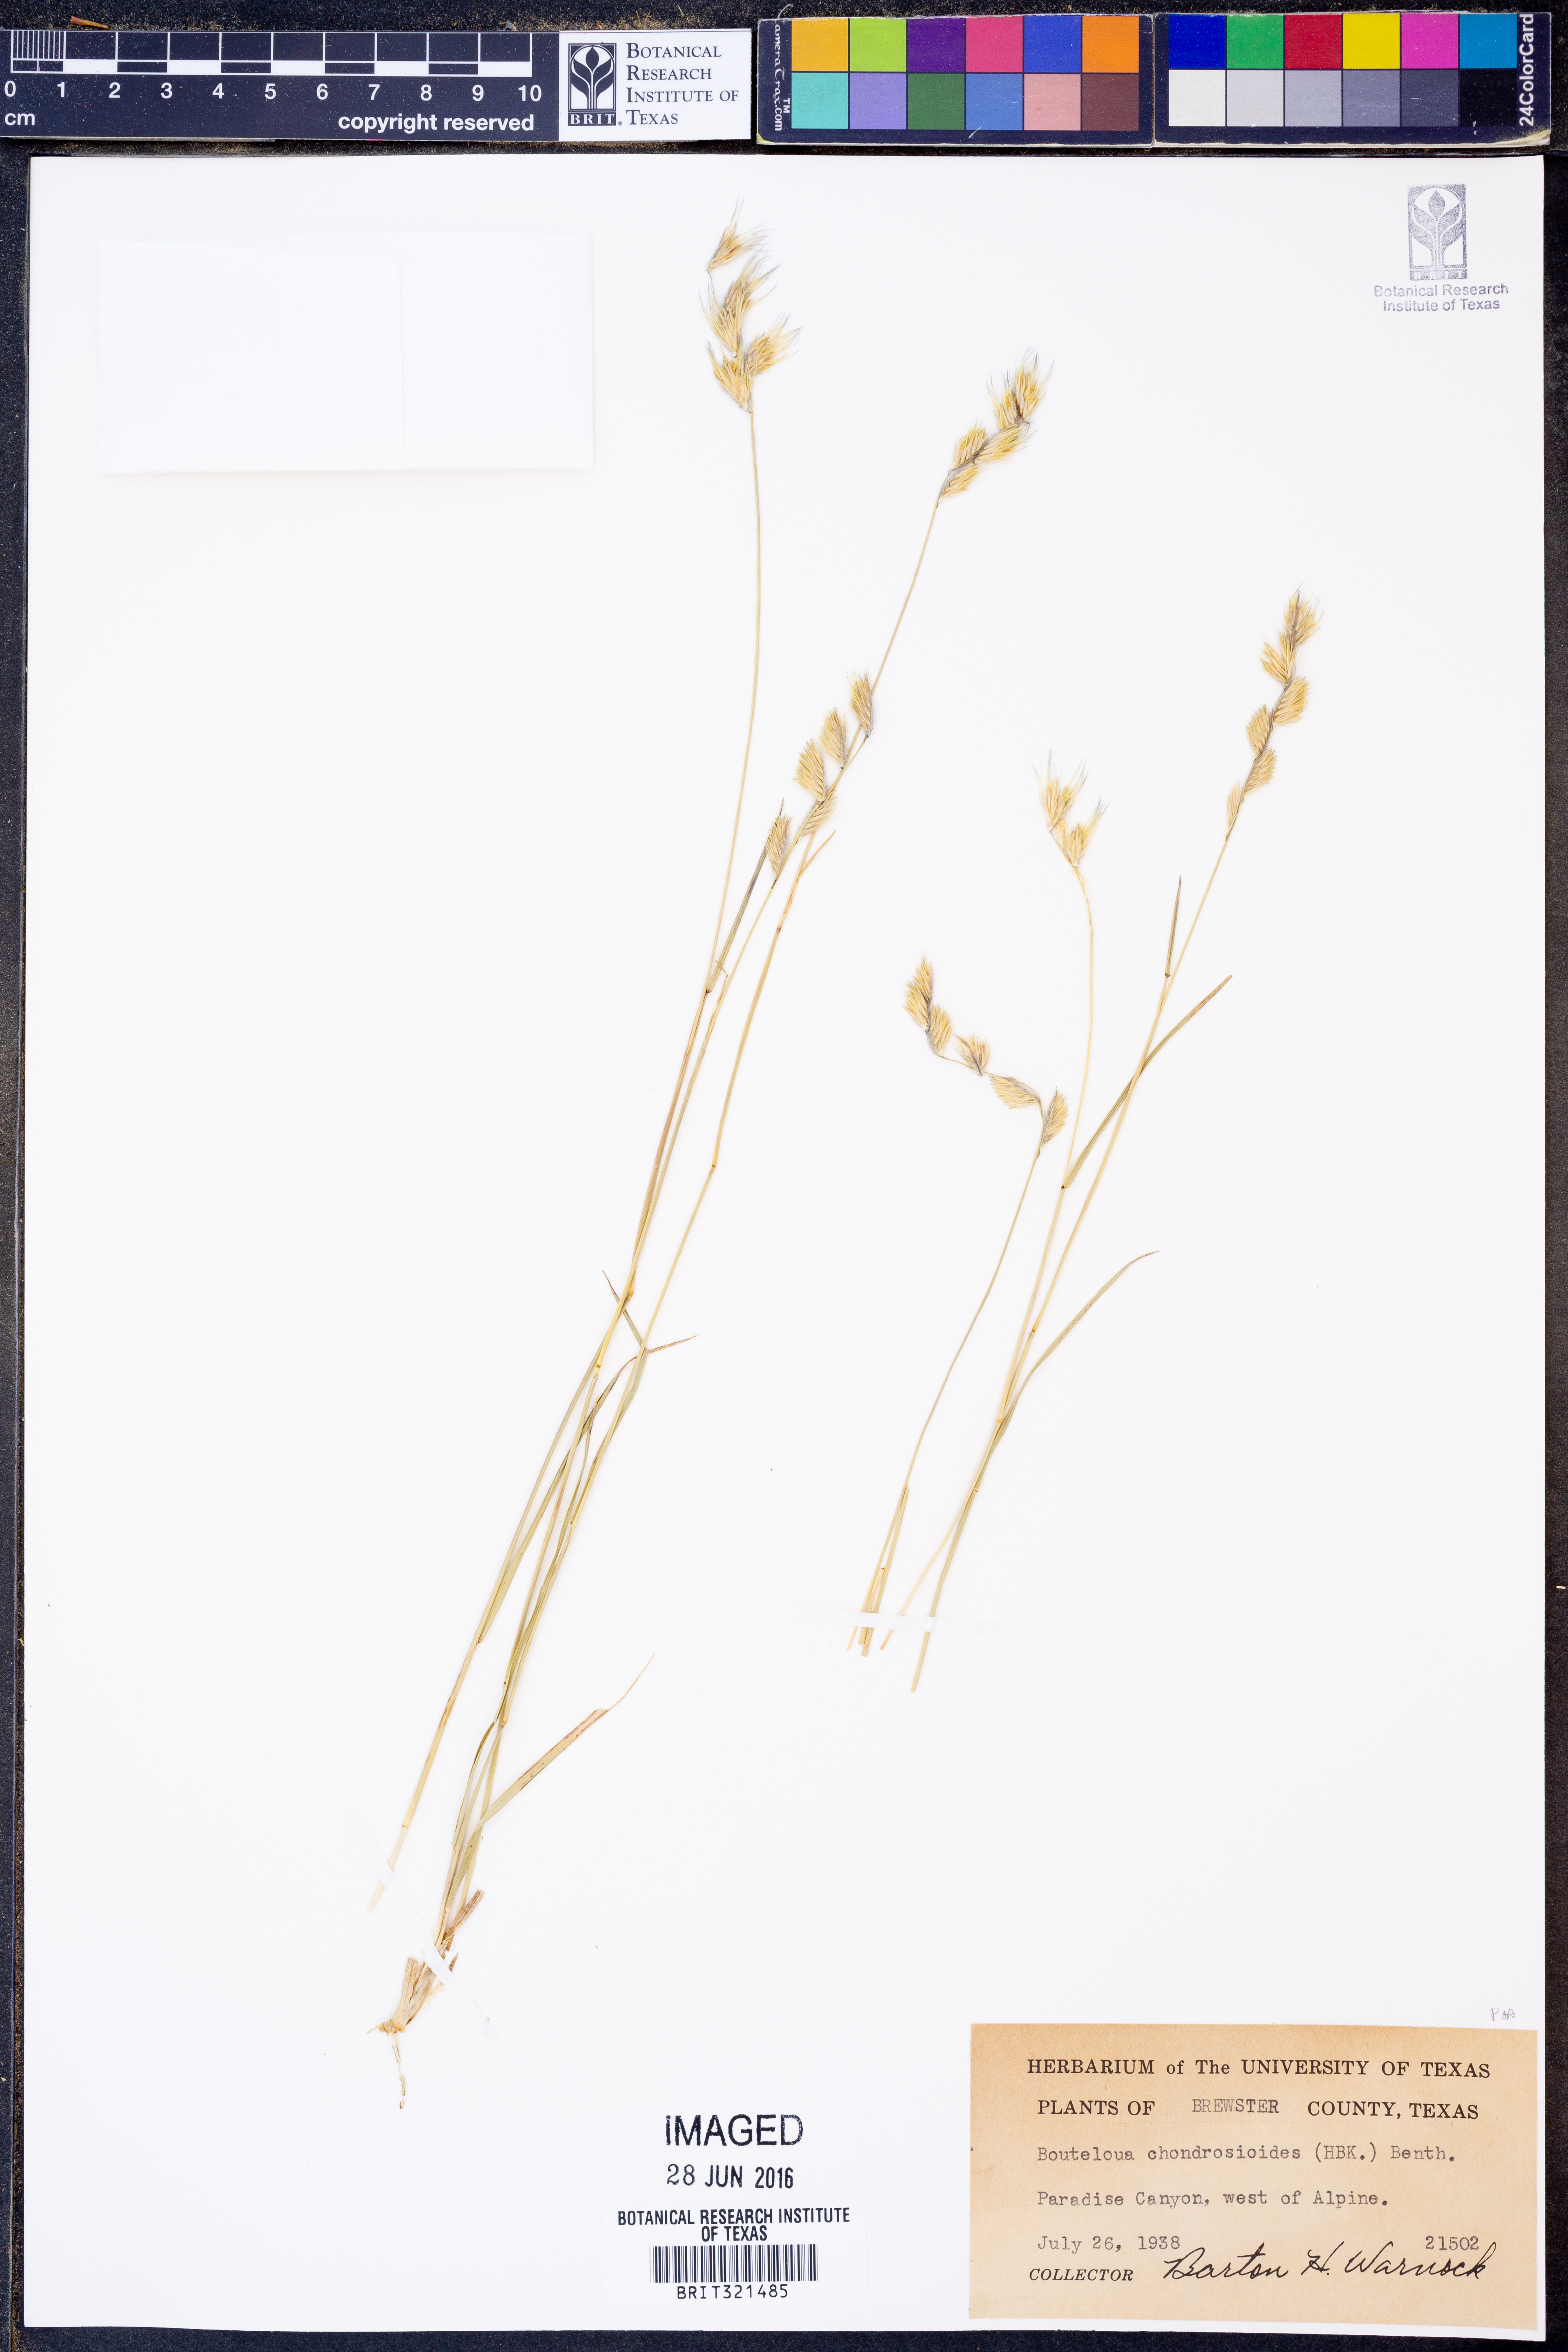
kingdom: Plantae
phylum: Tracheophyta
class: Liliopsida
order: Poales
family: Poaceae
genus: Bouteloua
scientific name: Bouteloua chondrosioides
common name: Sprucetop grama
